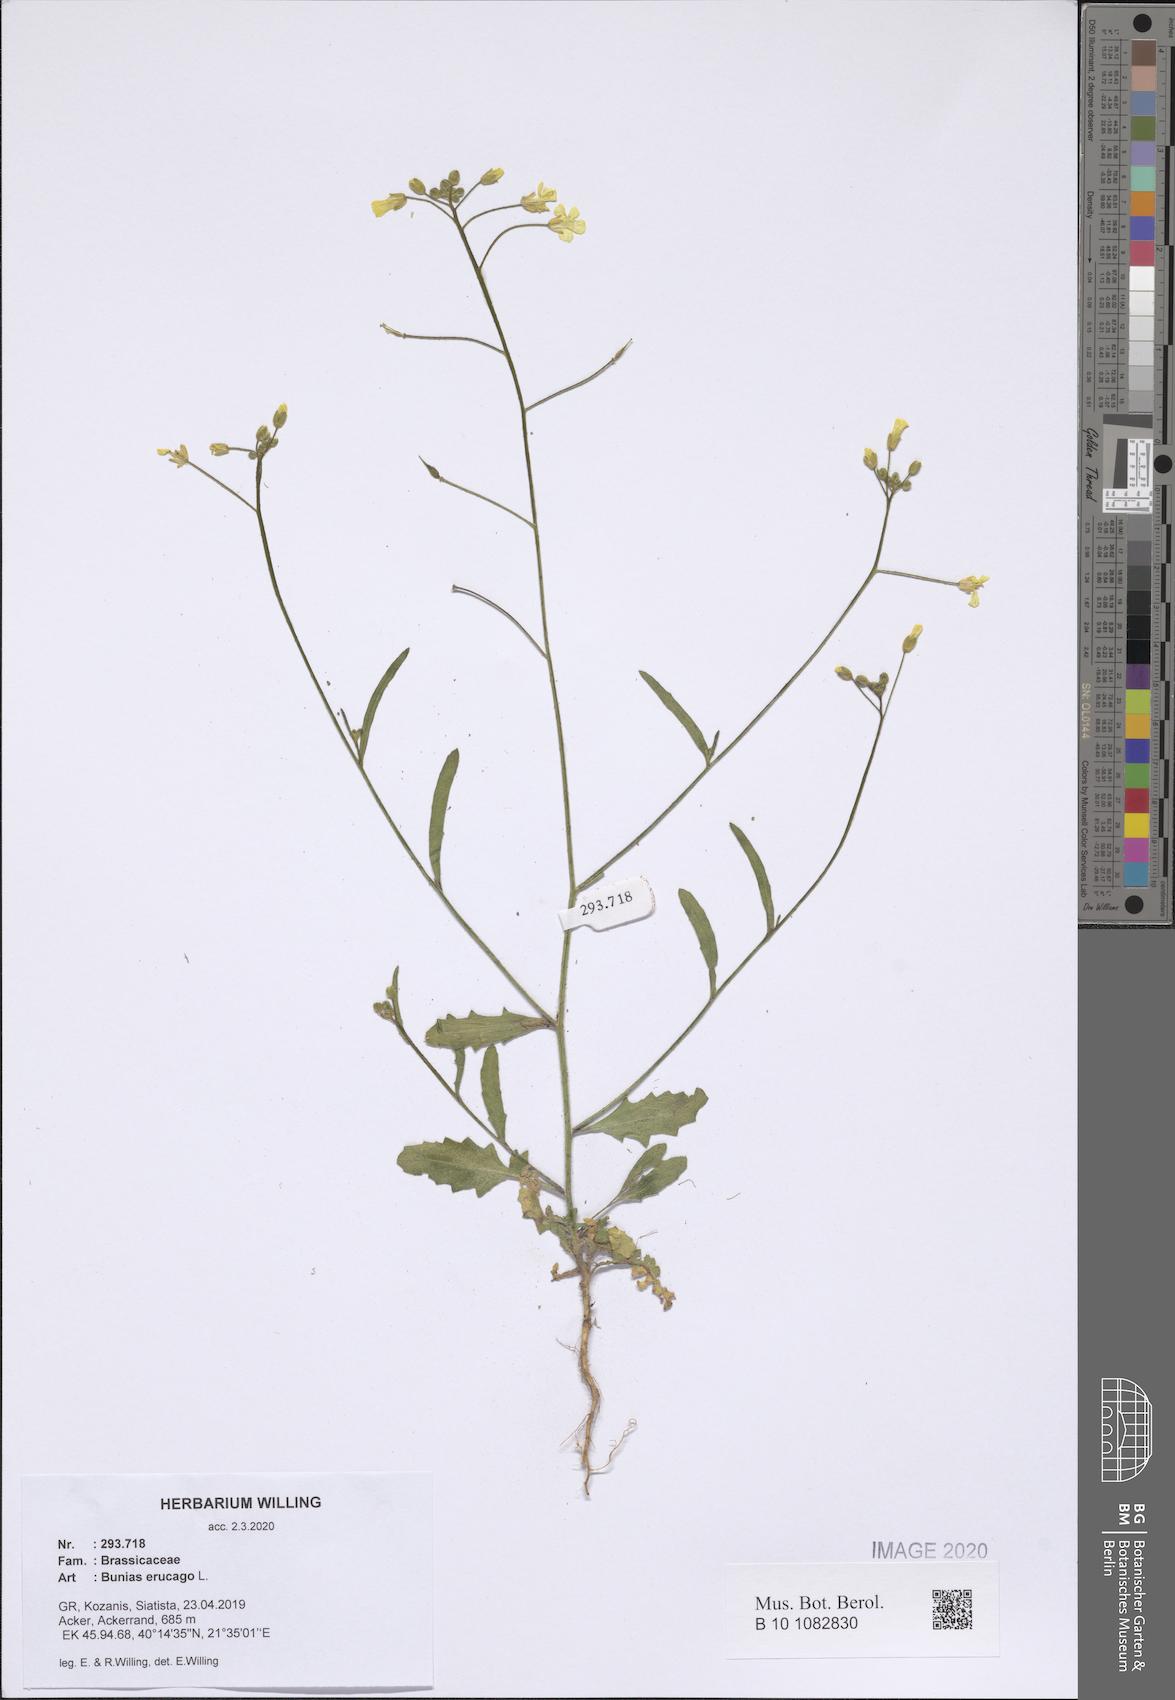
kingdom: Plantae
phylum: Tracheophyta
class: Magnoliopsida
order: Brassicales
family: Brassicaceae
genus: Bunias
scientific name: Bunias erucago
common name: Southern warty-cabbage
